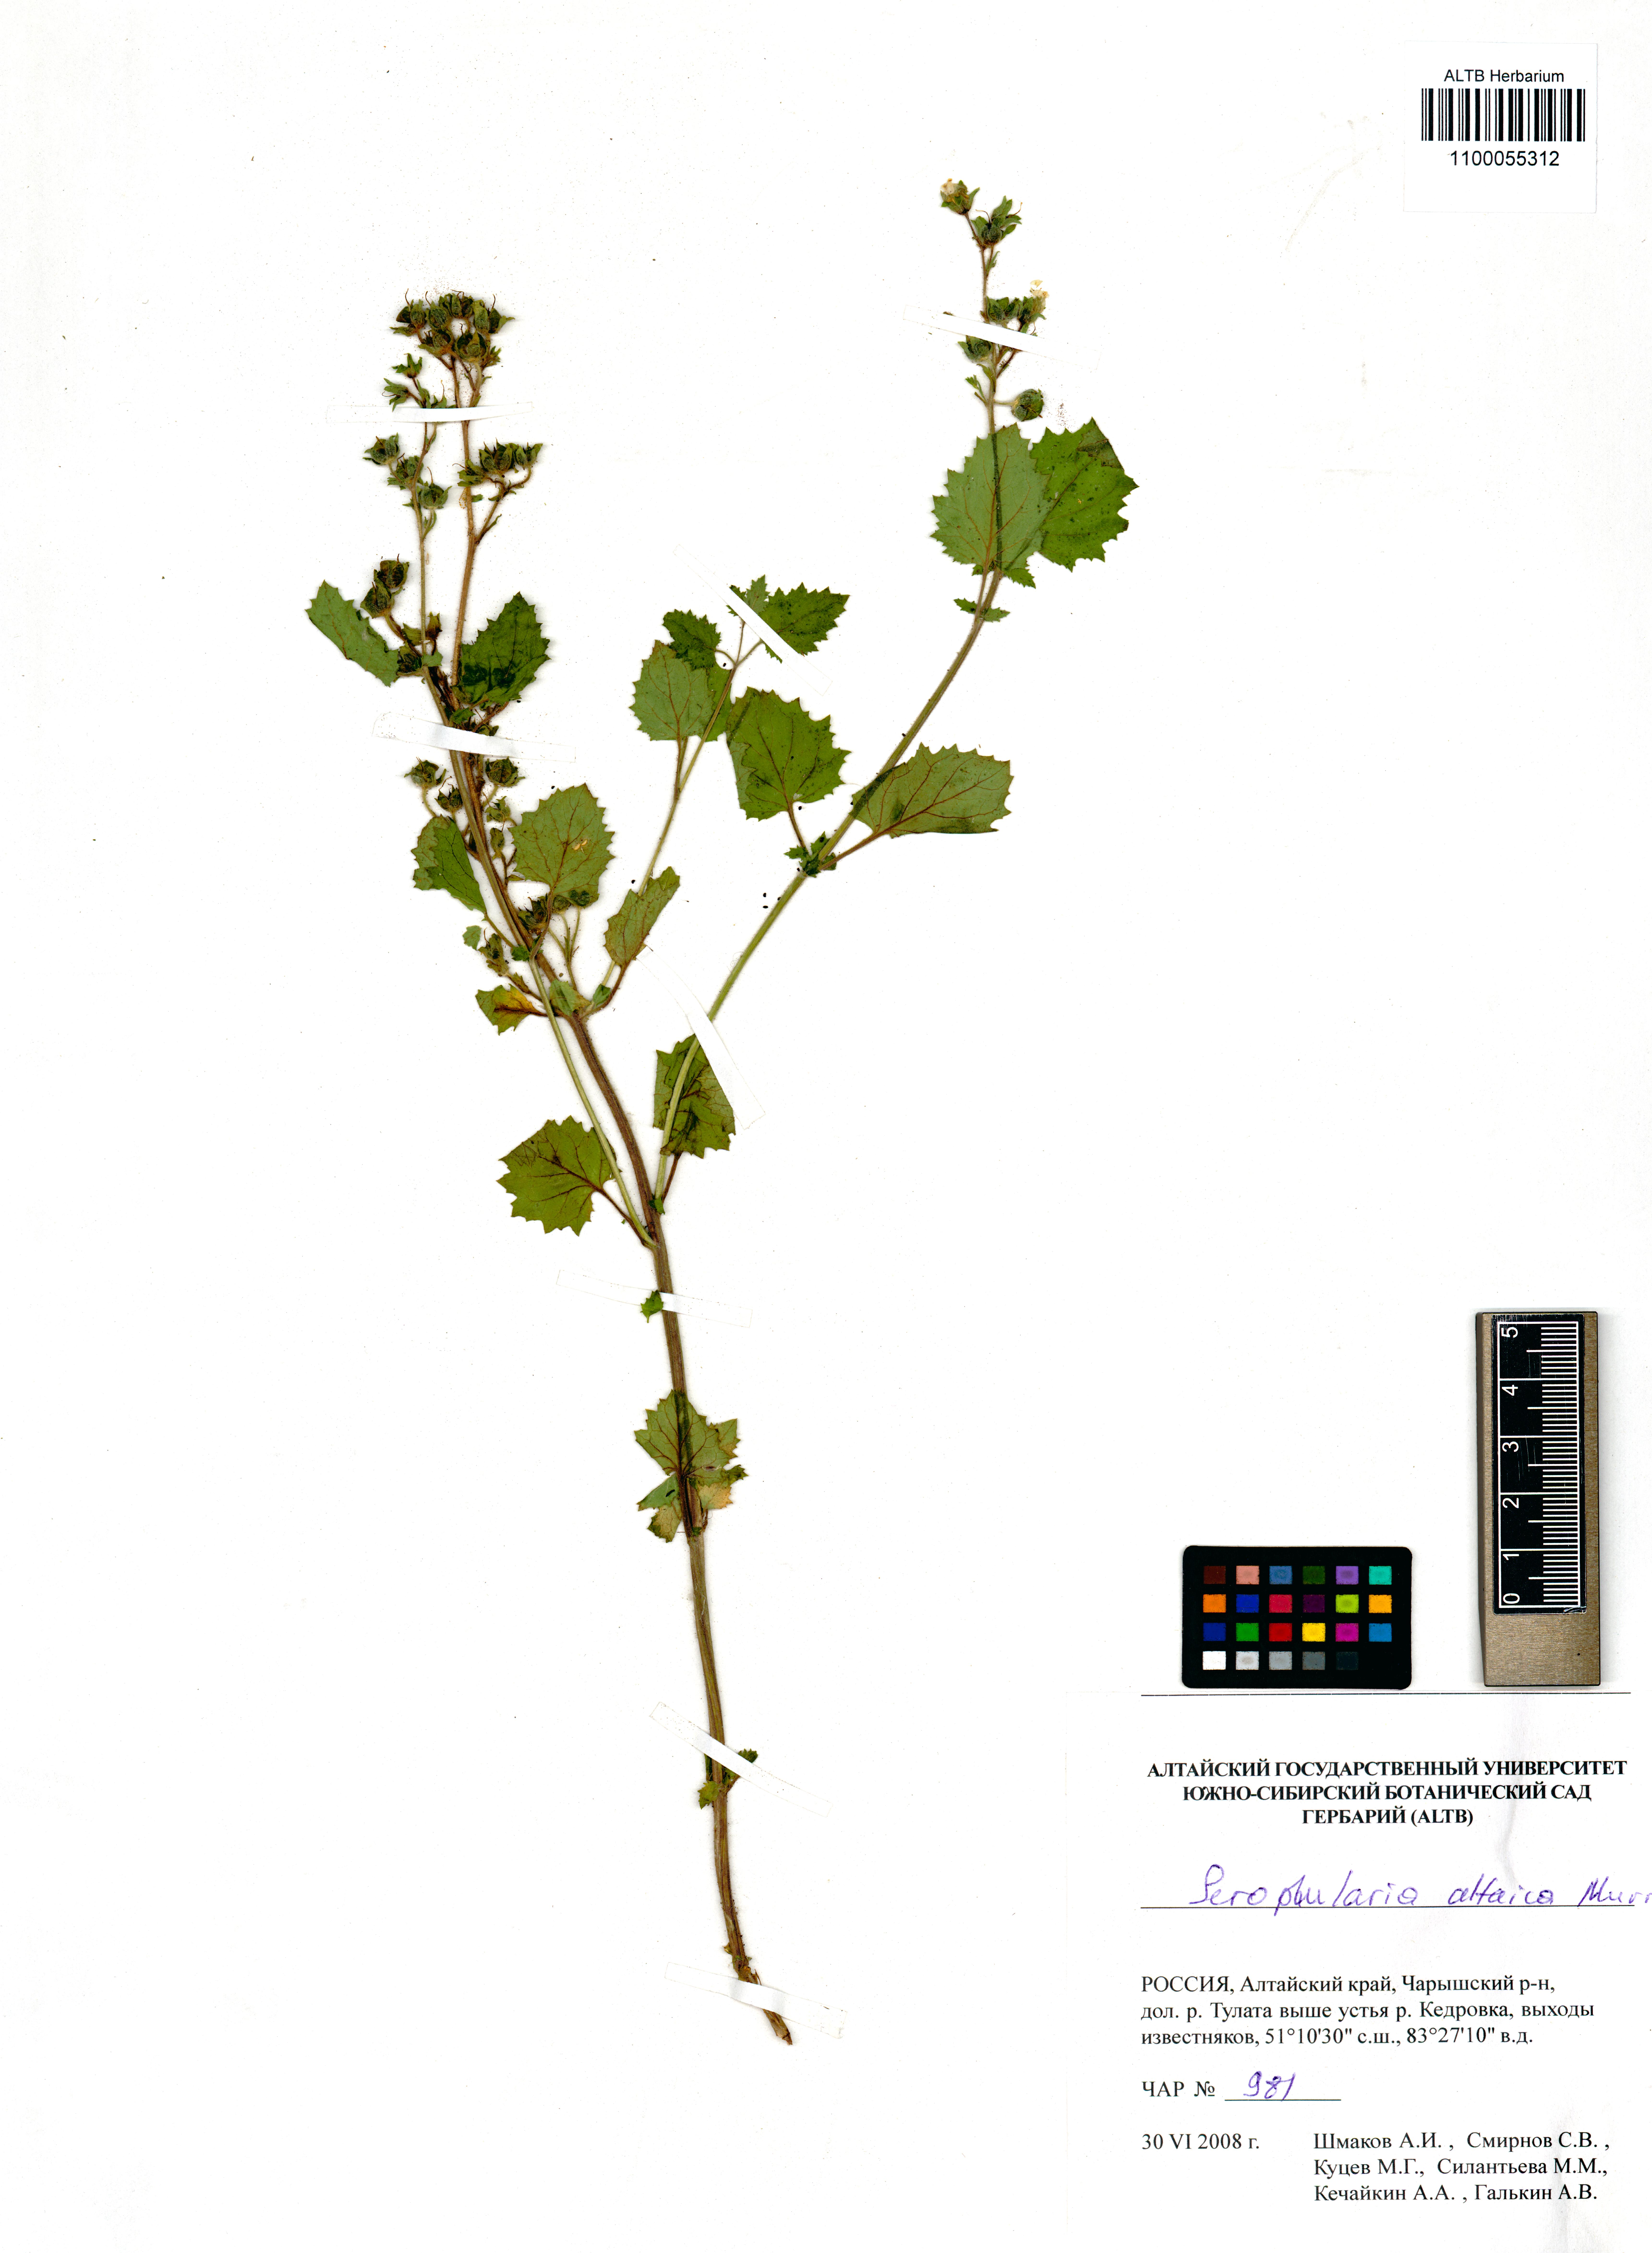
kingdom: Plantae
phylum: Tracheophyta
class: Magnoliopsida
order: Lamiales
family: Scrophulariaceae
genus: Scrophularia
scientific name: Scrophularia altaica
